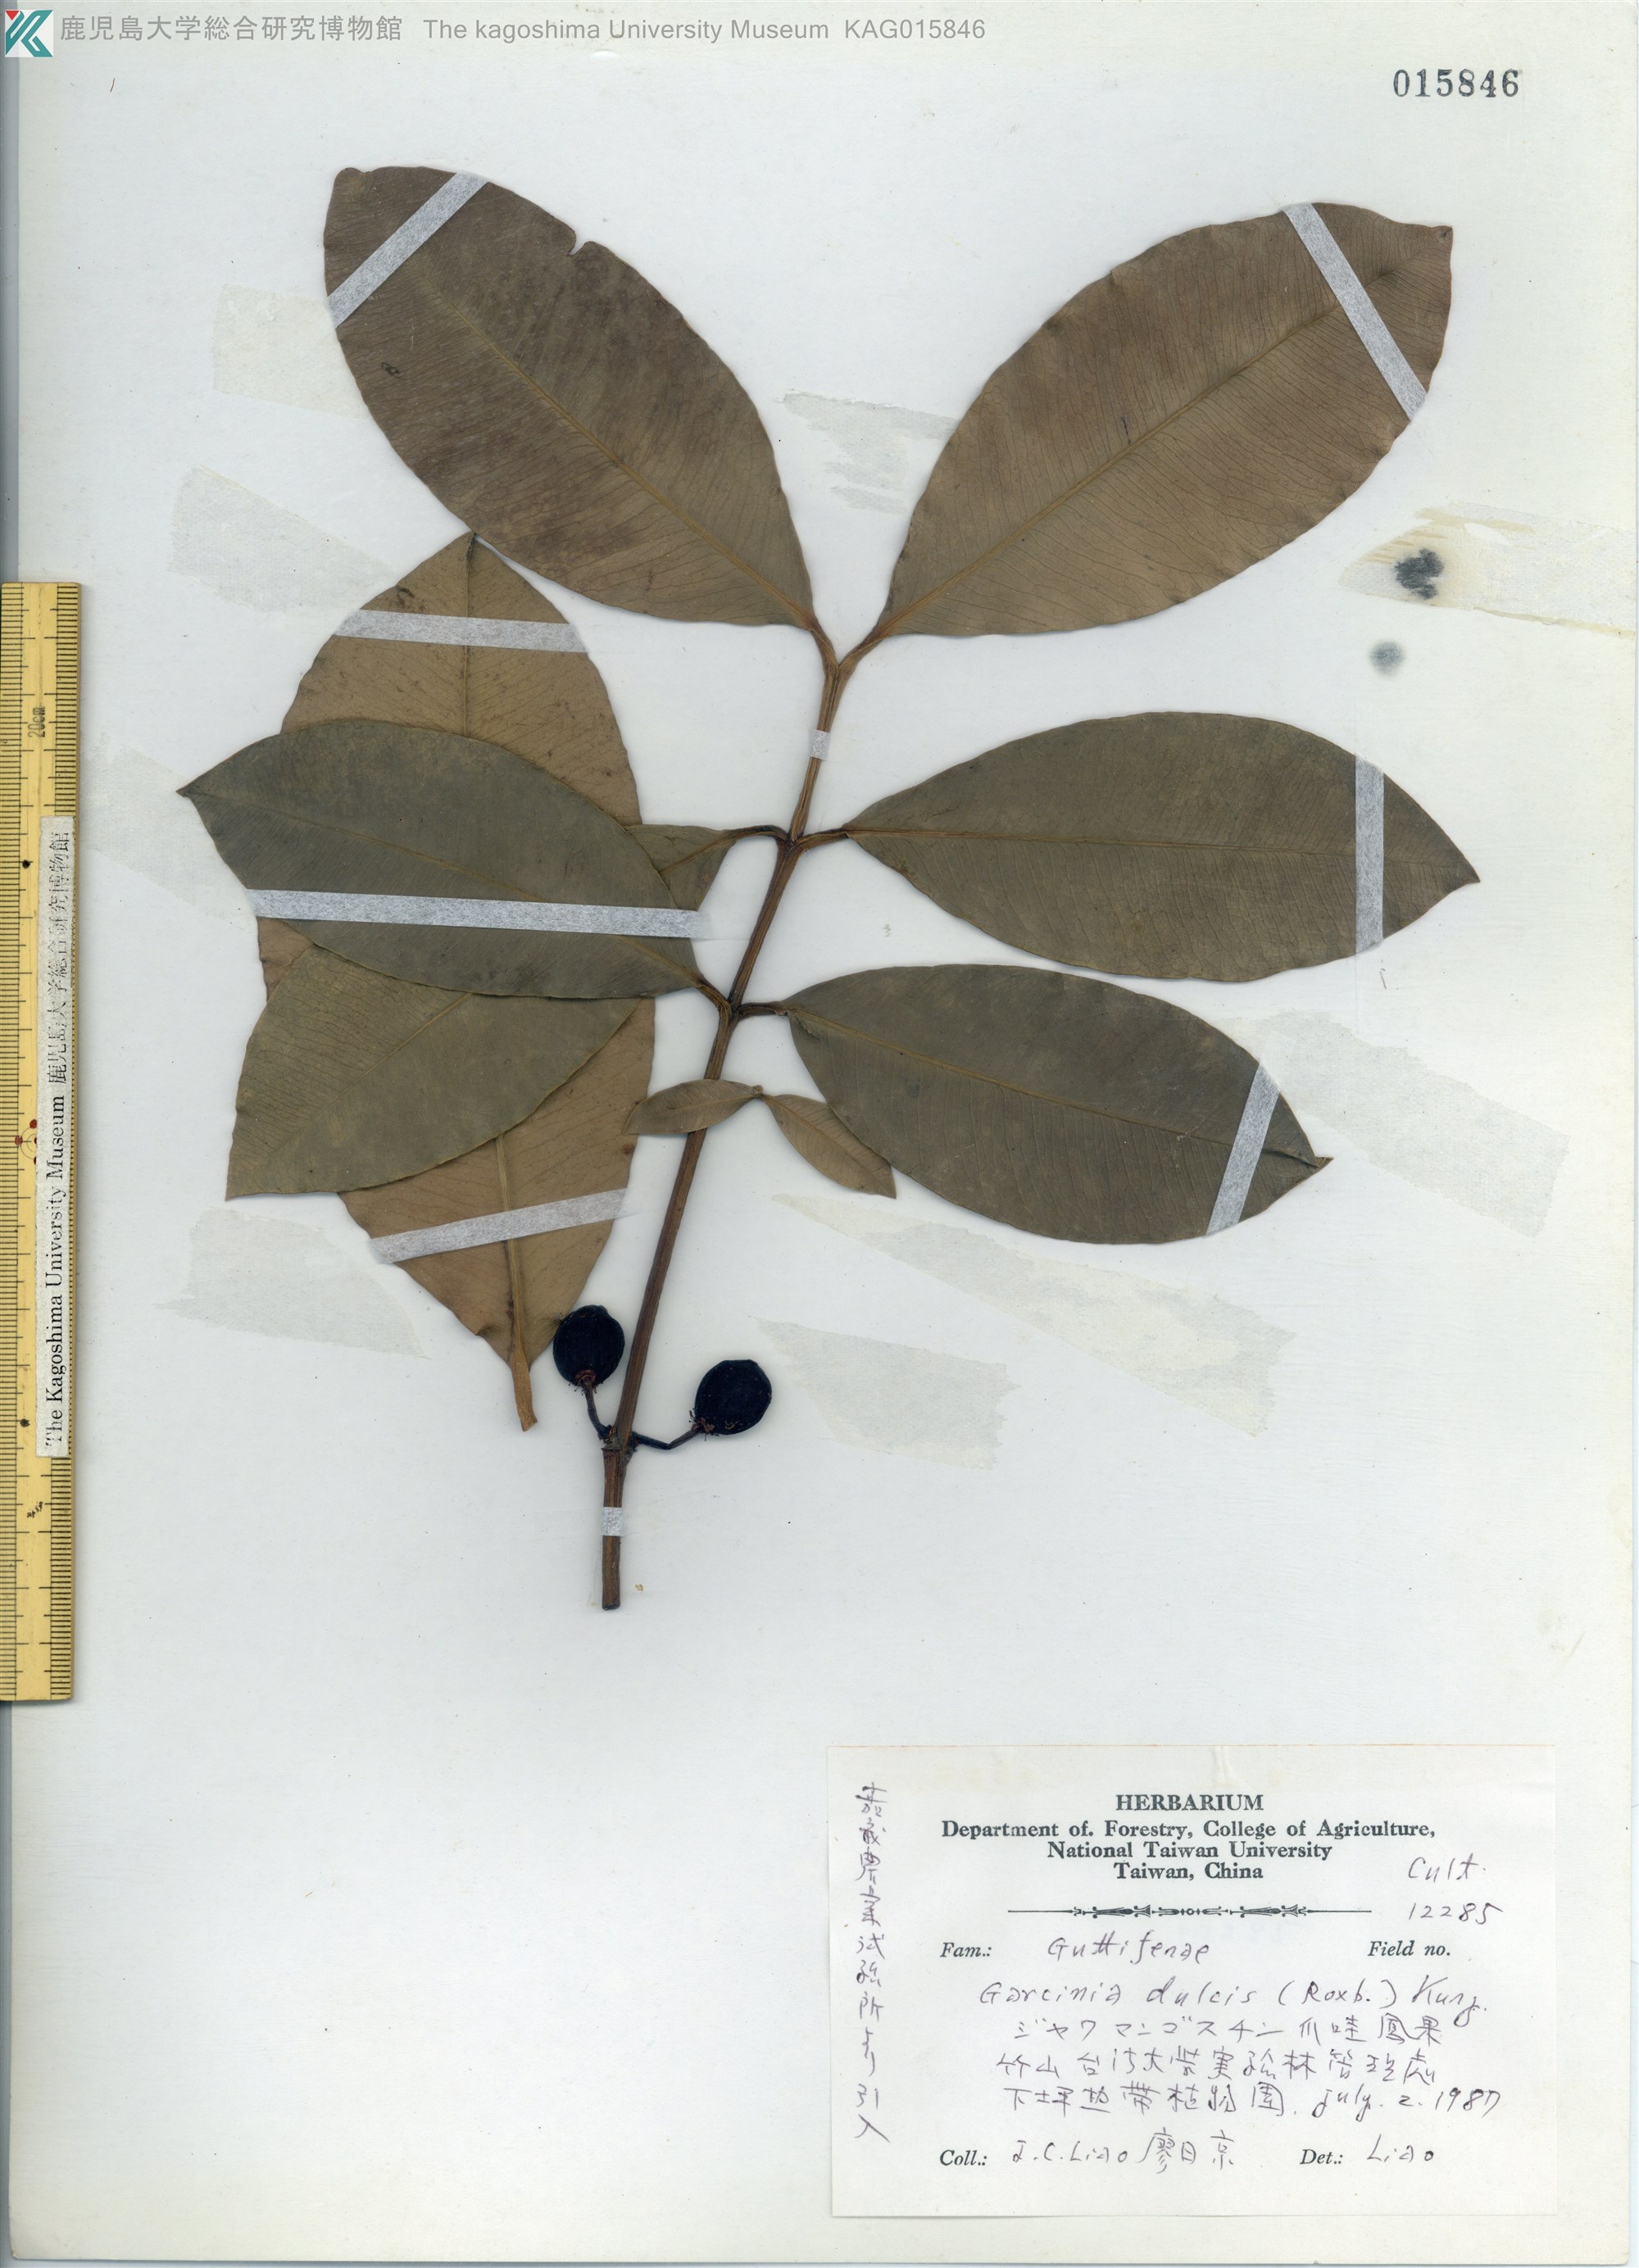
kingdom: Plantae
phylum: Tracheophyta
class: Magnoliopsida
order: Malpighiales
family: Clusiaceae
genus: Garcinia
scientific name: Garcinia dulcis
